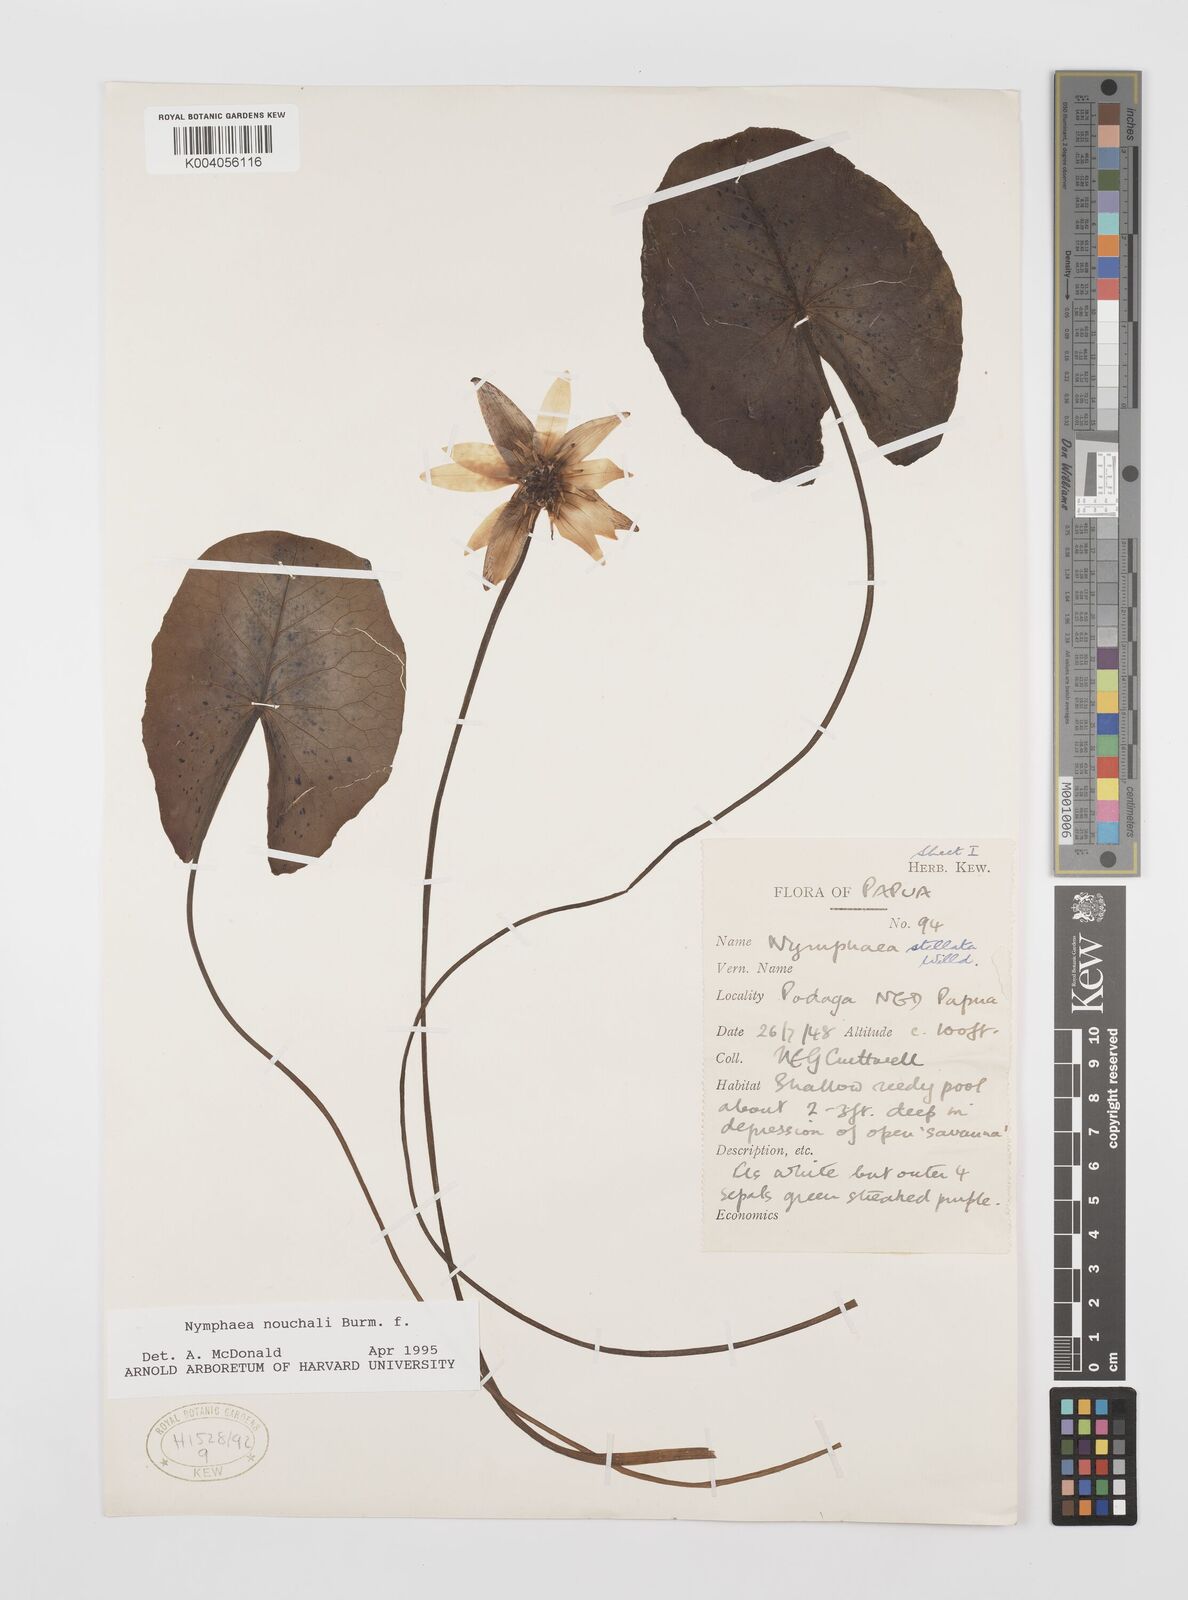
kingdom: Plantae
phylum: Tracheophyta
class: Magnoliopsida
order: Nymphaeales
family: Nymphaeaceae
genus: Nymphaea
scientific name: Nymphaea nouchali
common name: Blue lotus
